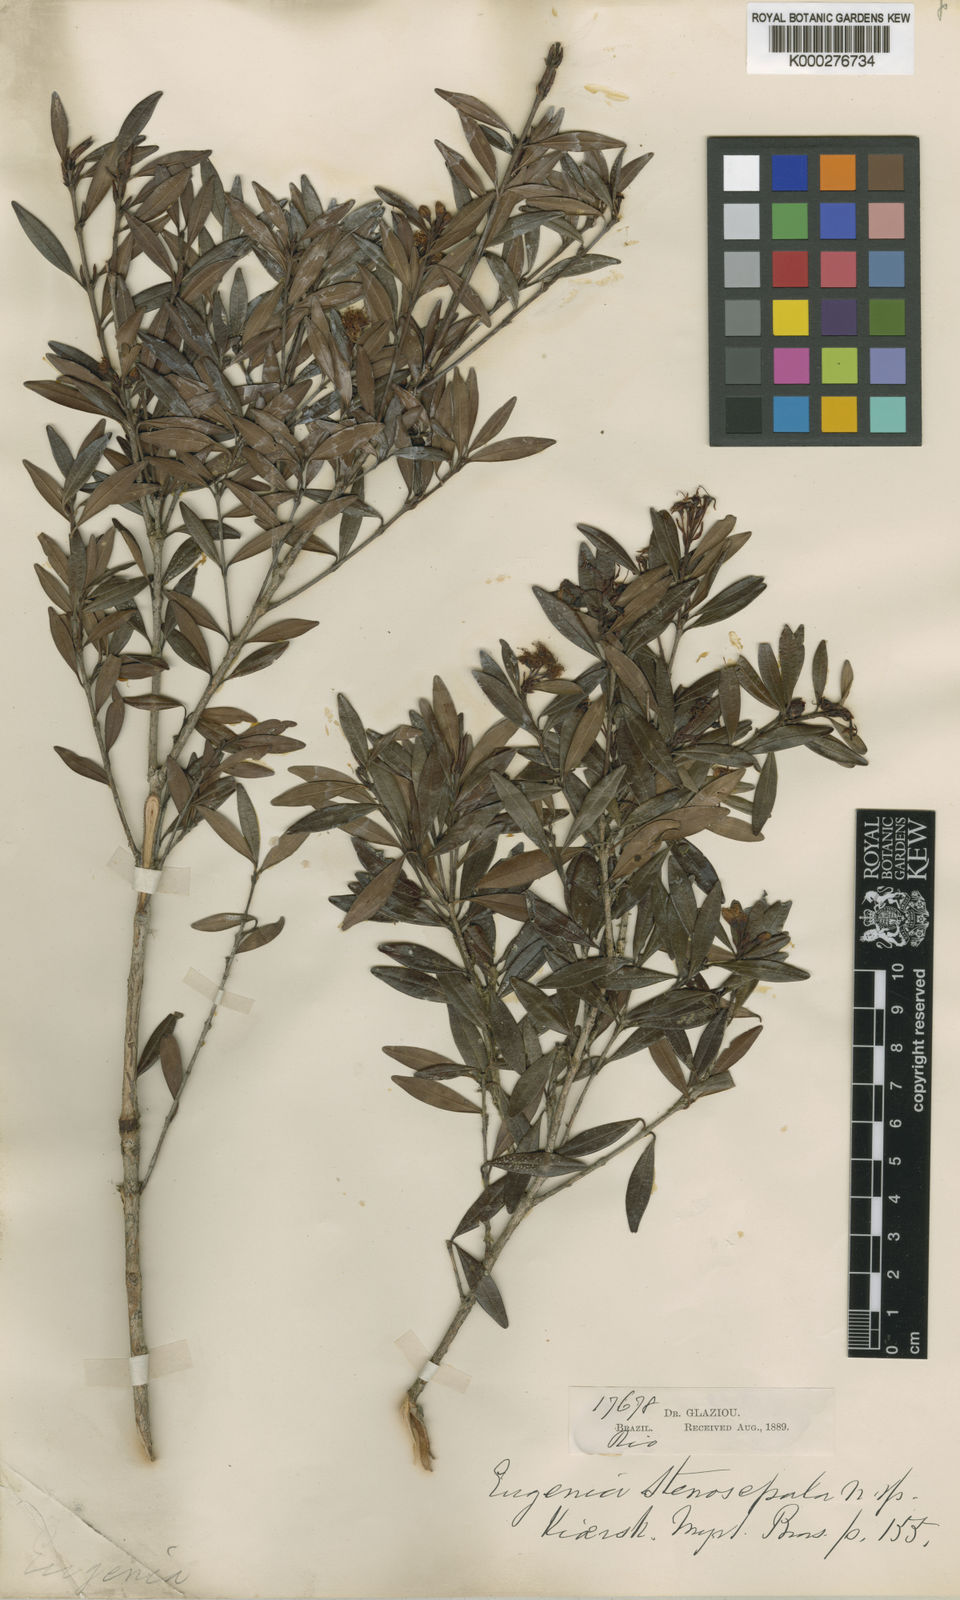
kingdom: Plantae
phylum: Tracheophyta
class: Magnoliopsida
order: Myrtales
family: Myrtaceae
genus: Eugenia
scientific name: Eugenia stenosepala
